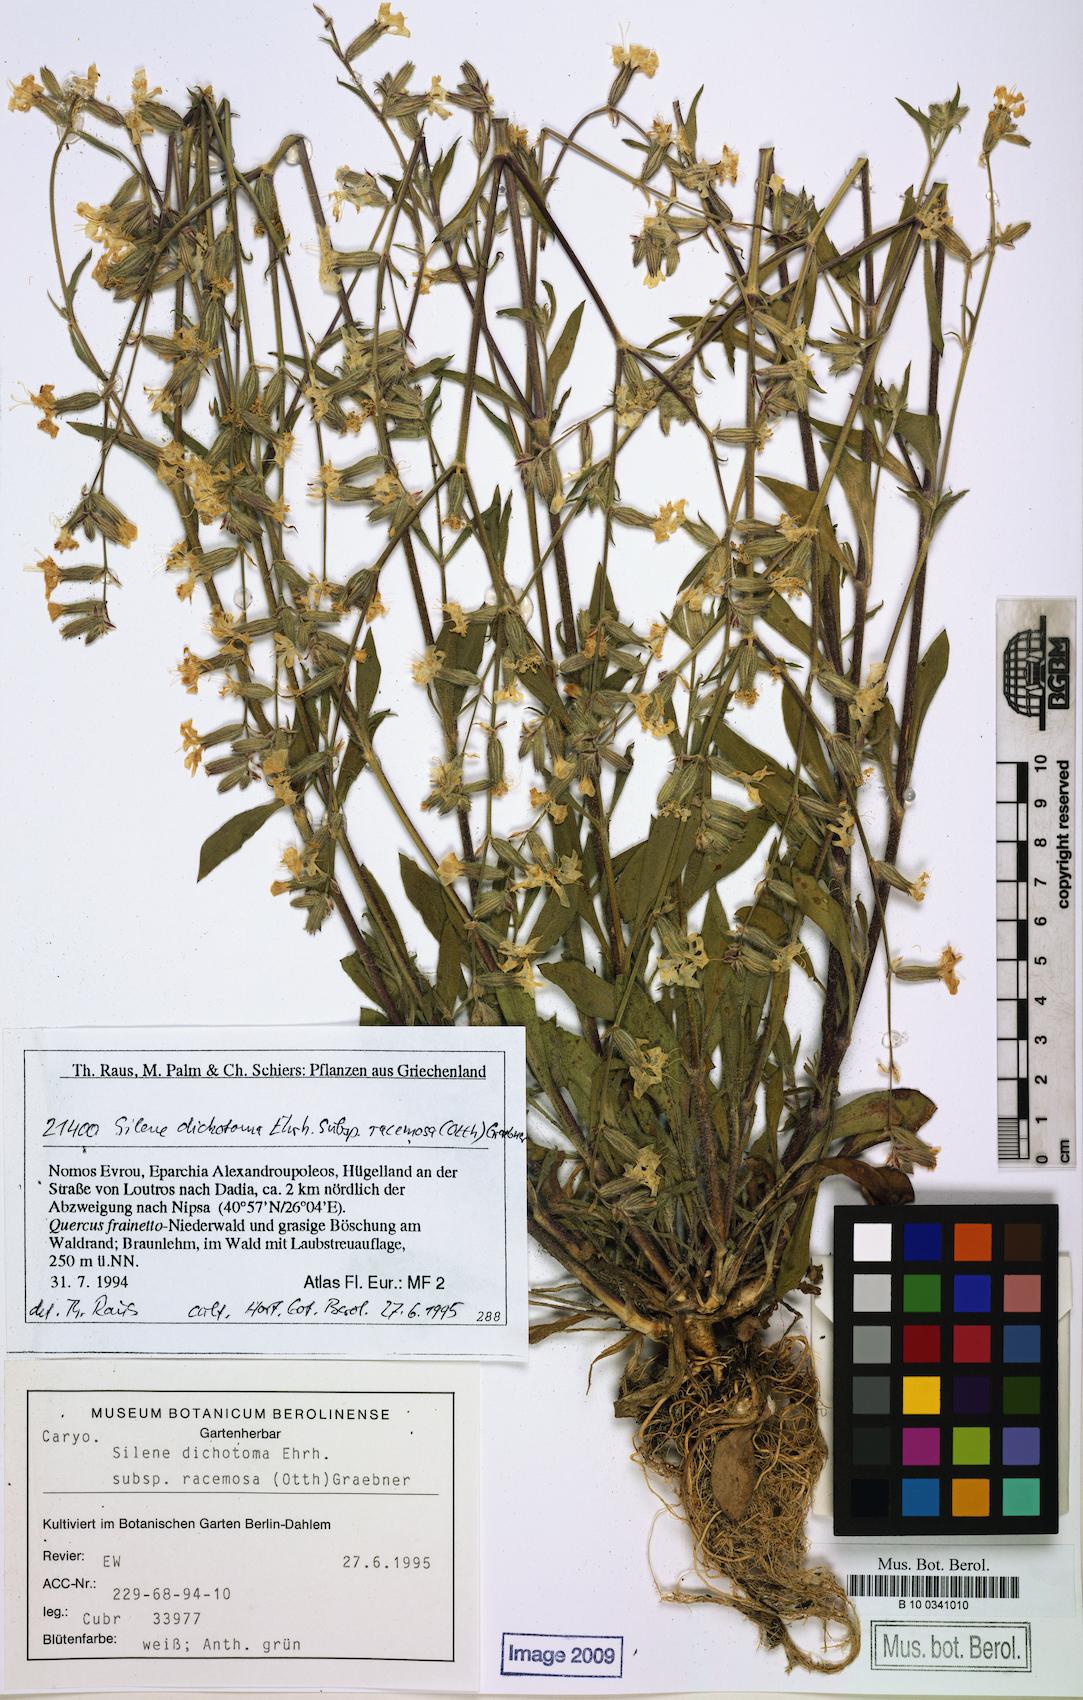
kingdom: Plantae
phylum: Tracheophyta
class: Magnoliopsida
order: Caryophyllales
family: Caryophyllaceae
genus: Silene
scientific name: Silene dichotoma
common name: Forked catchfly
